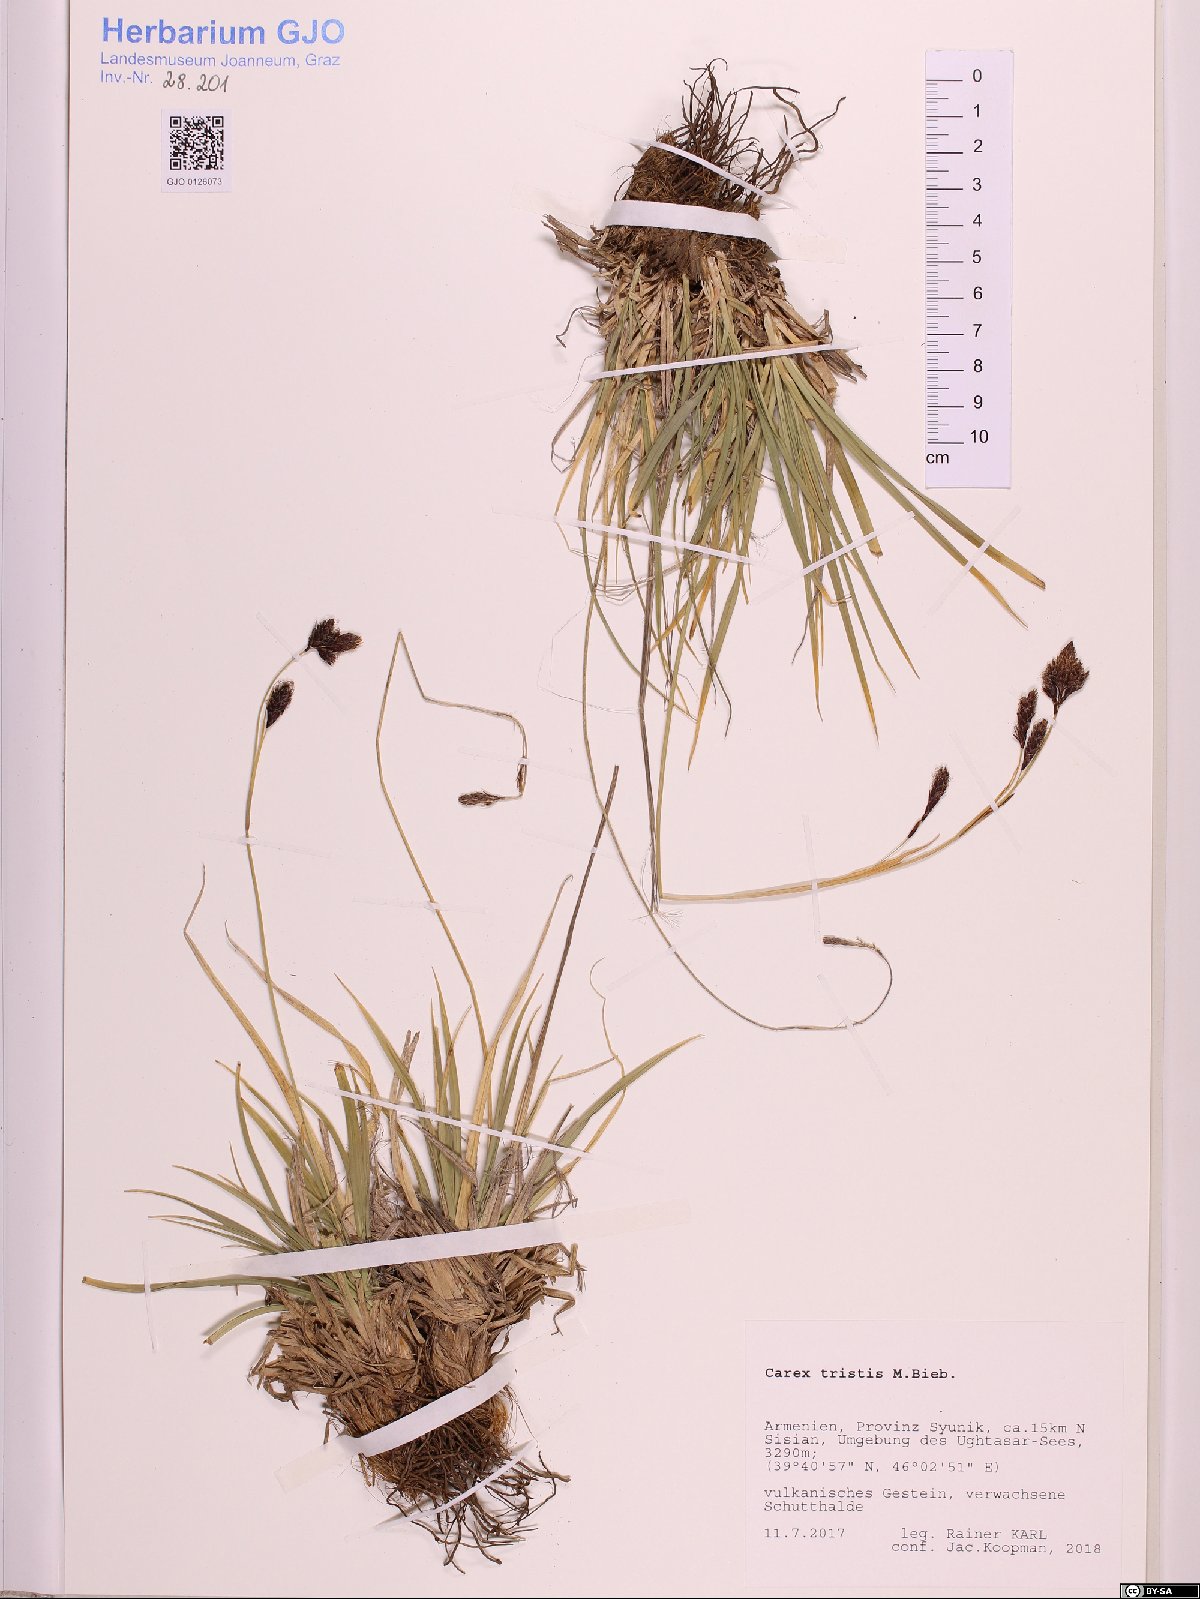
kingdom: Plantae
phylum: Tracheophyta
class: Liliopsida
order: Poales
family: Cyperaceae
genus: Carex
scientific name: Carex tristis
